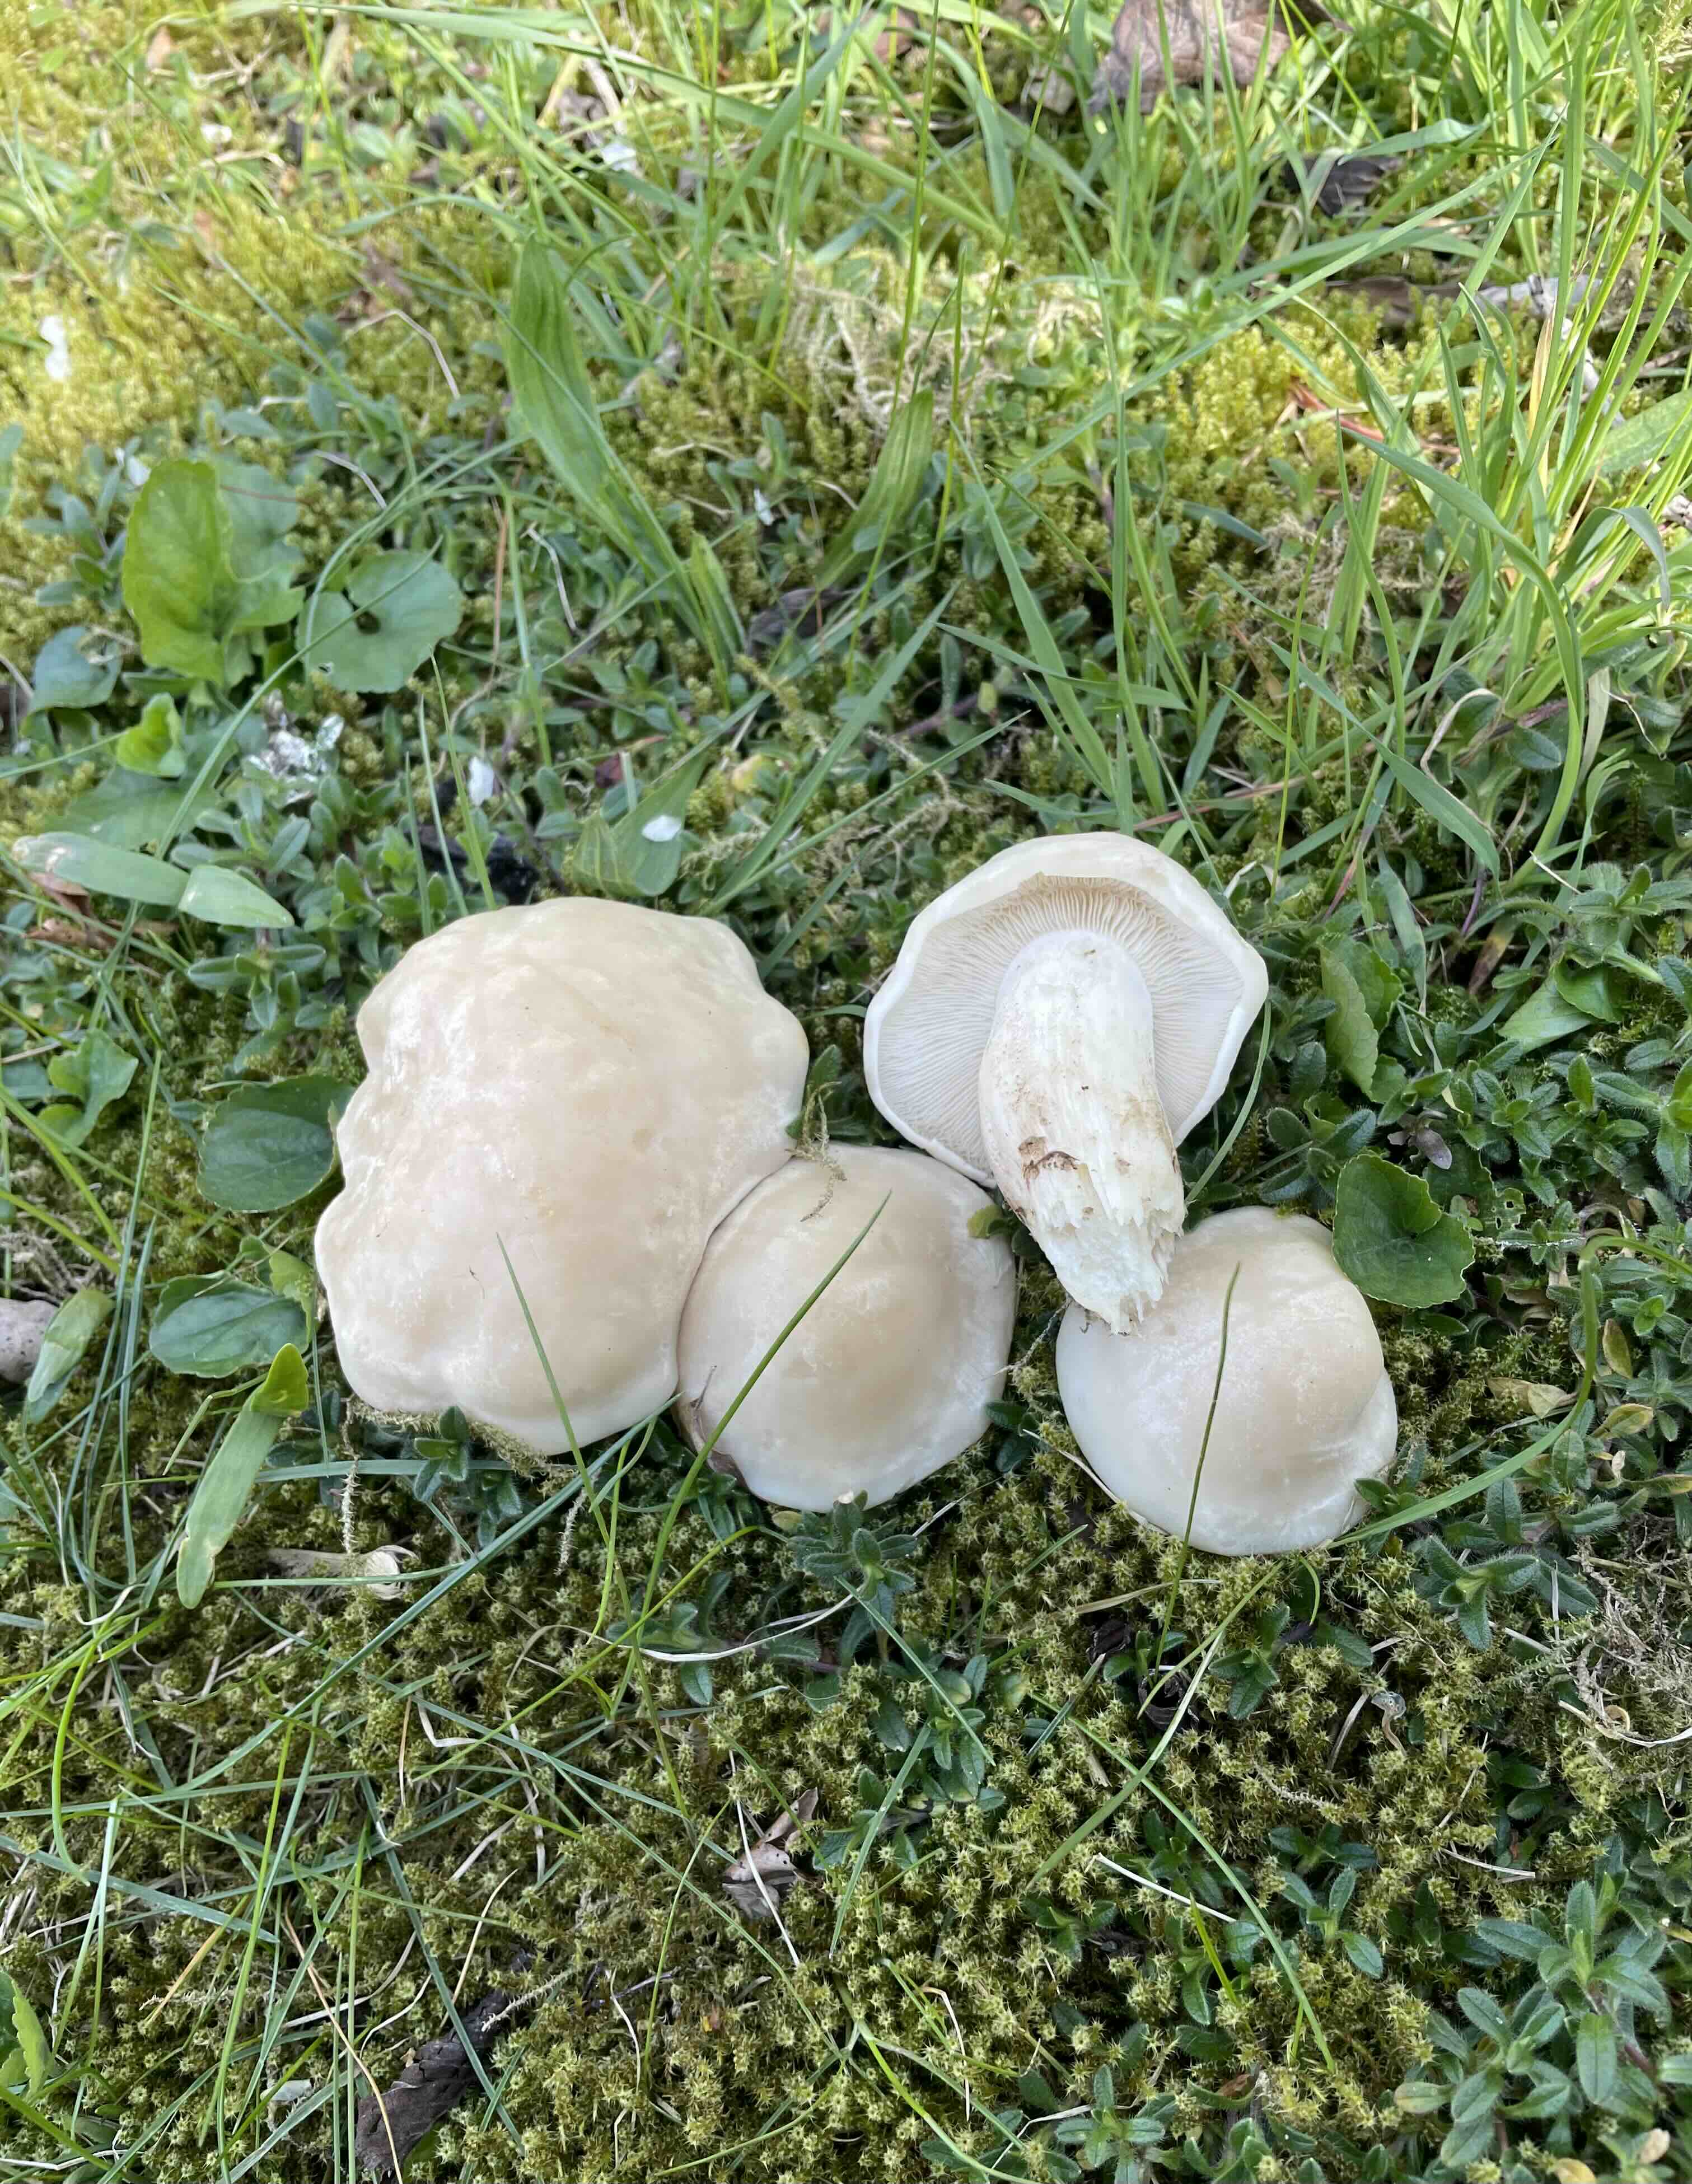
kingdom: Fungi
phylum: Basidiomycota
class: Agaricomycetes
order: Agaricales
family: Lyophyllaceae
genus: Calocybe
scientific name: Calocybe gambosa
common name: vårmusseron
